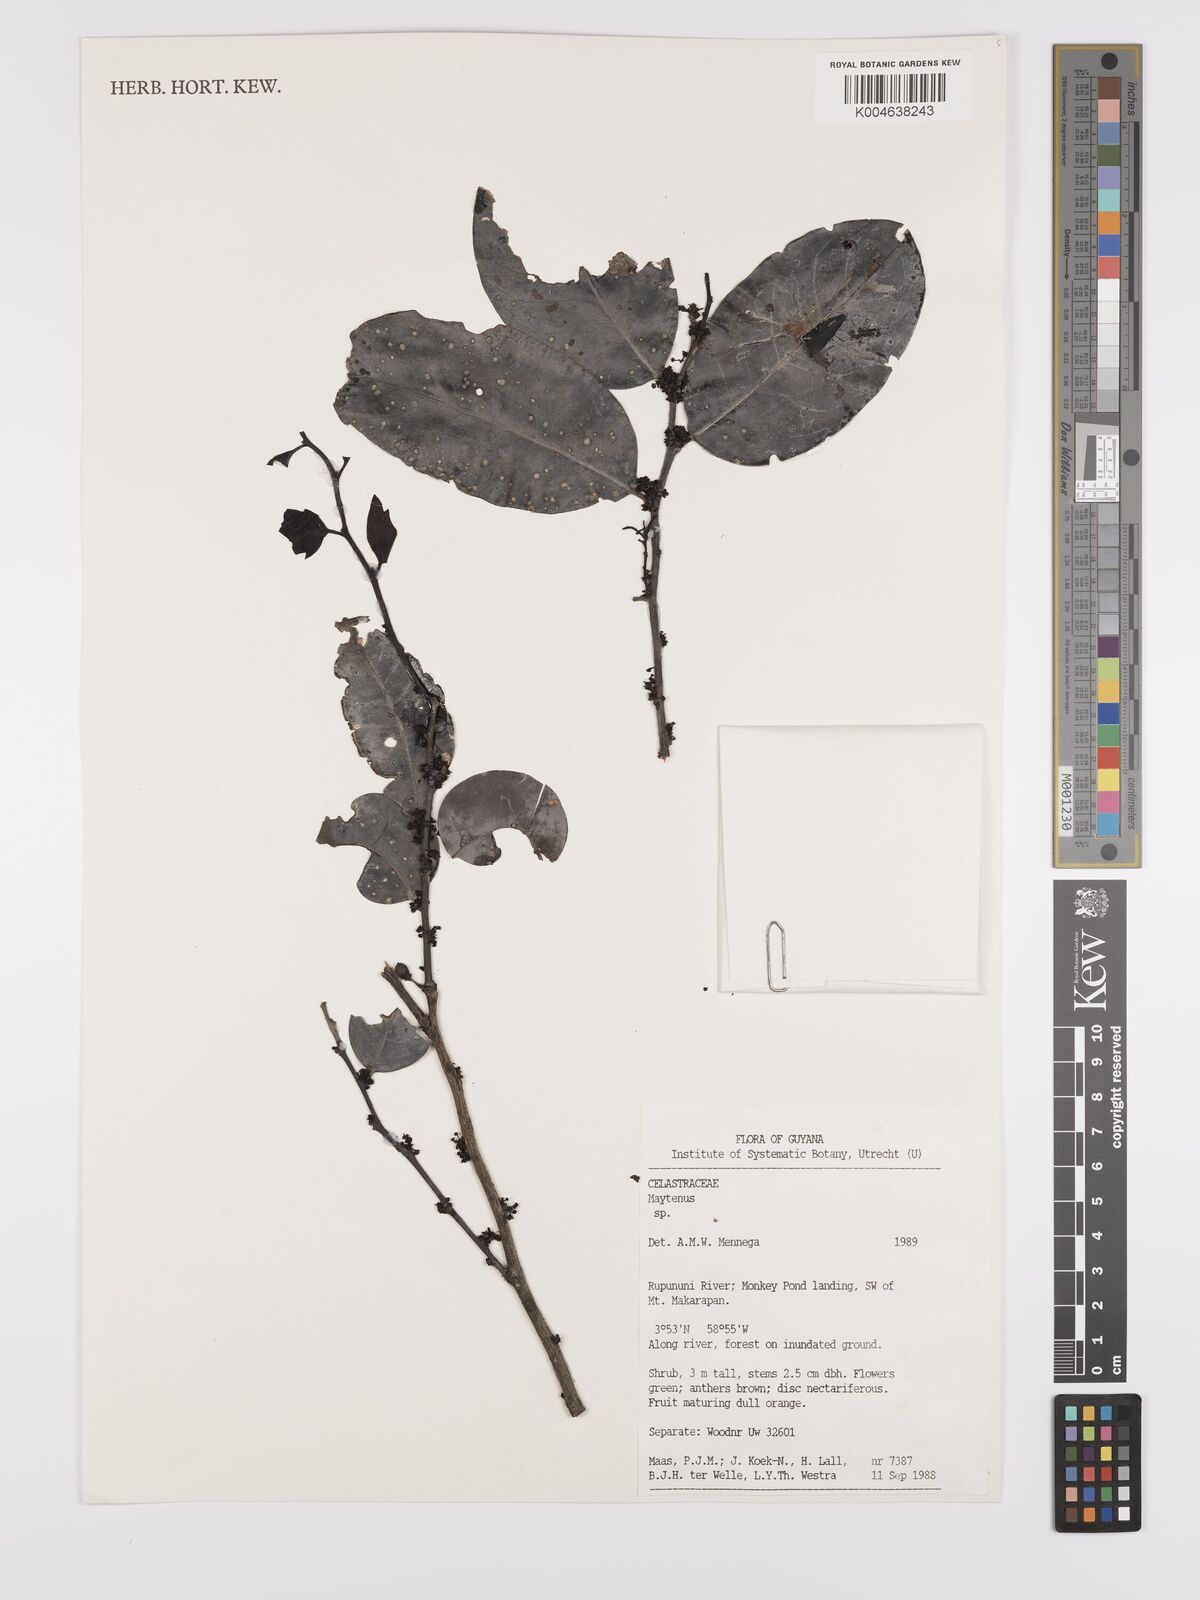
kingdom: Plantae
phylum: Tracheophyta
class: Magnoliopsida
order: Celastrales
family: Celastraceae
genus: Maytenus
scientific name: Maytenus
